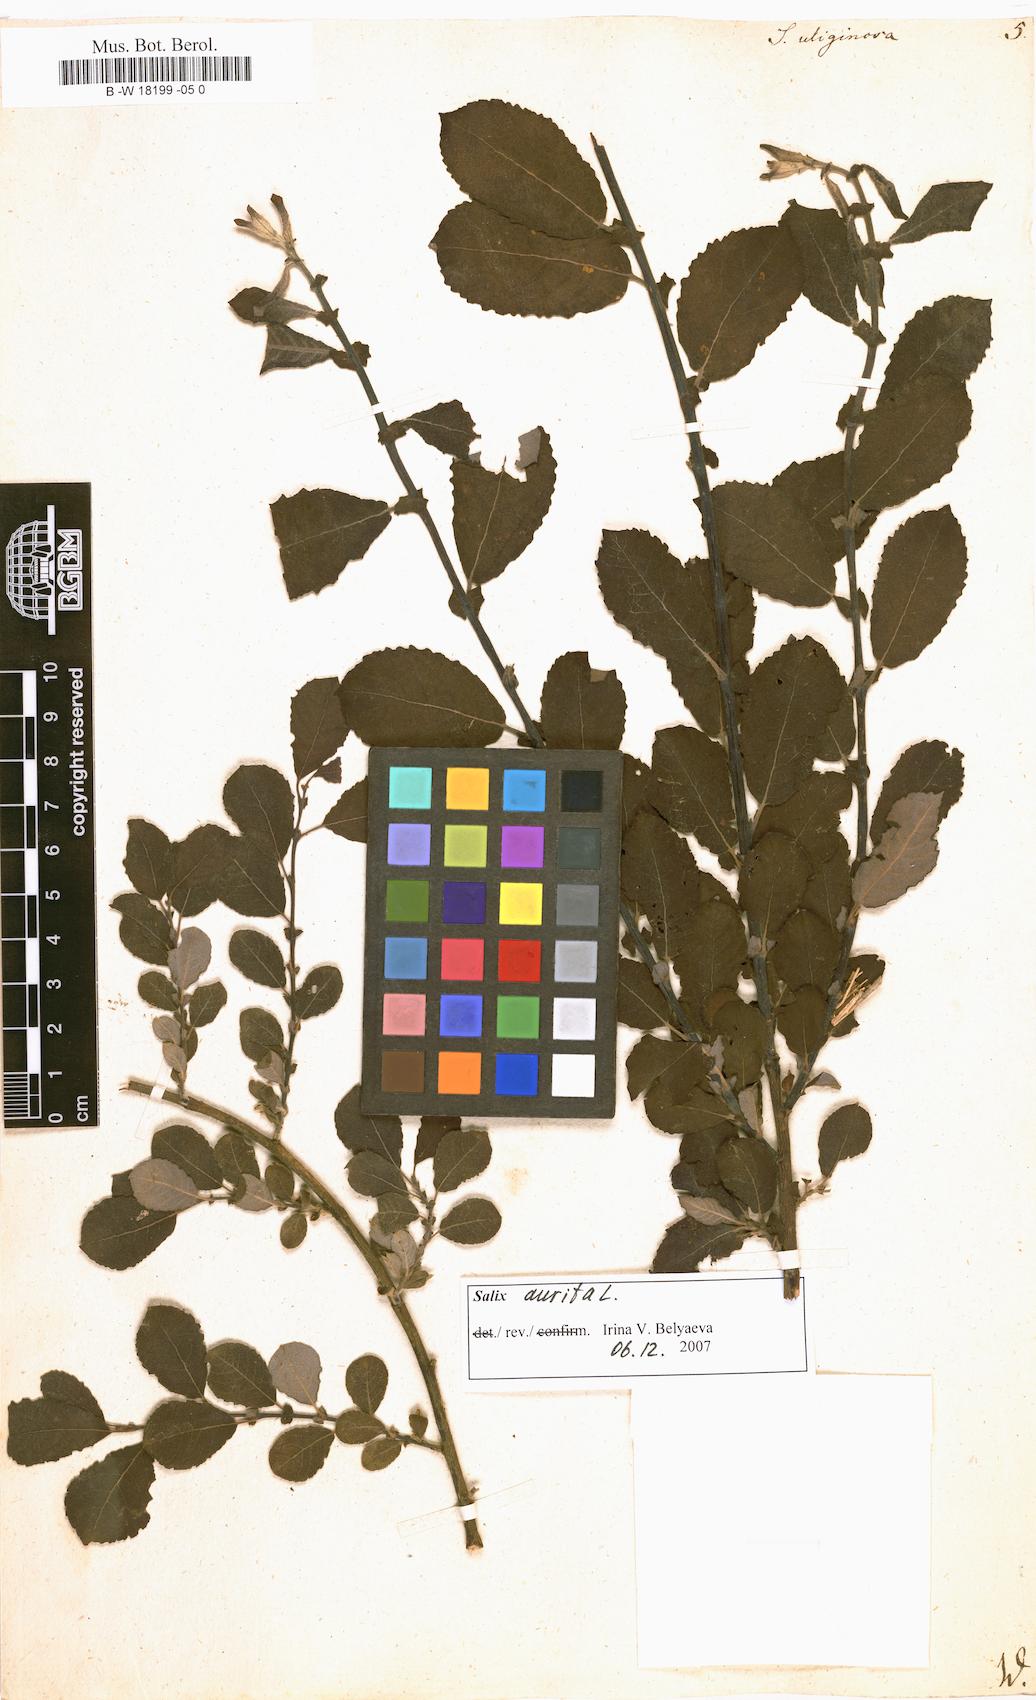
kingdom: Plantae
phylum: Tracheophyta
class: Magnoliopsida
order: Malpighiales
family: Salicaceae
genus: Salix
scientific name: Salix
